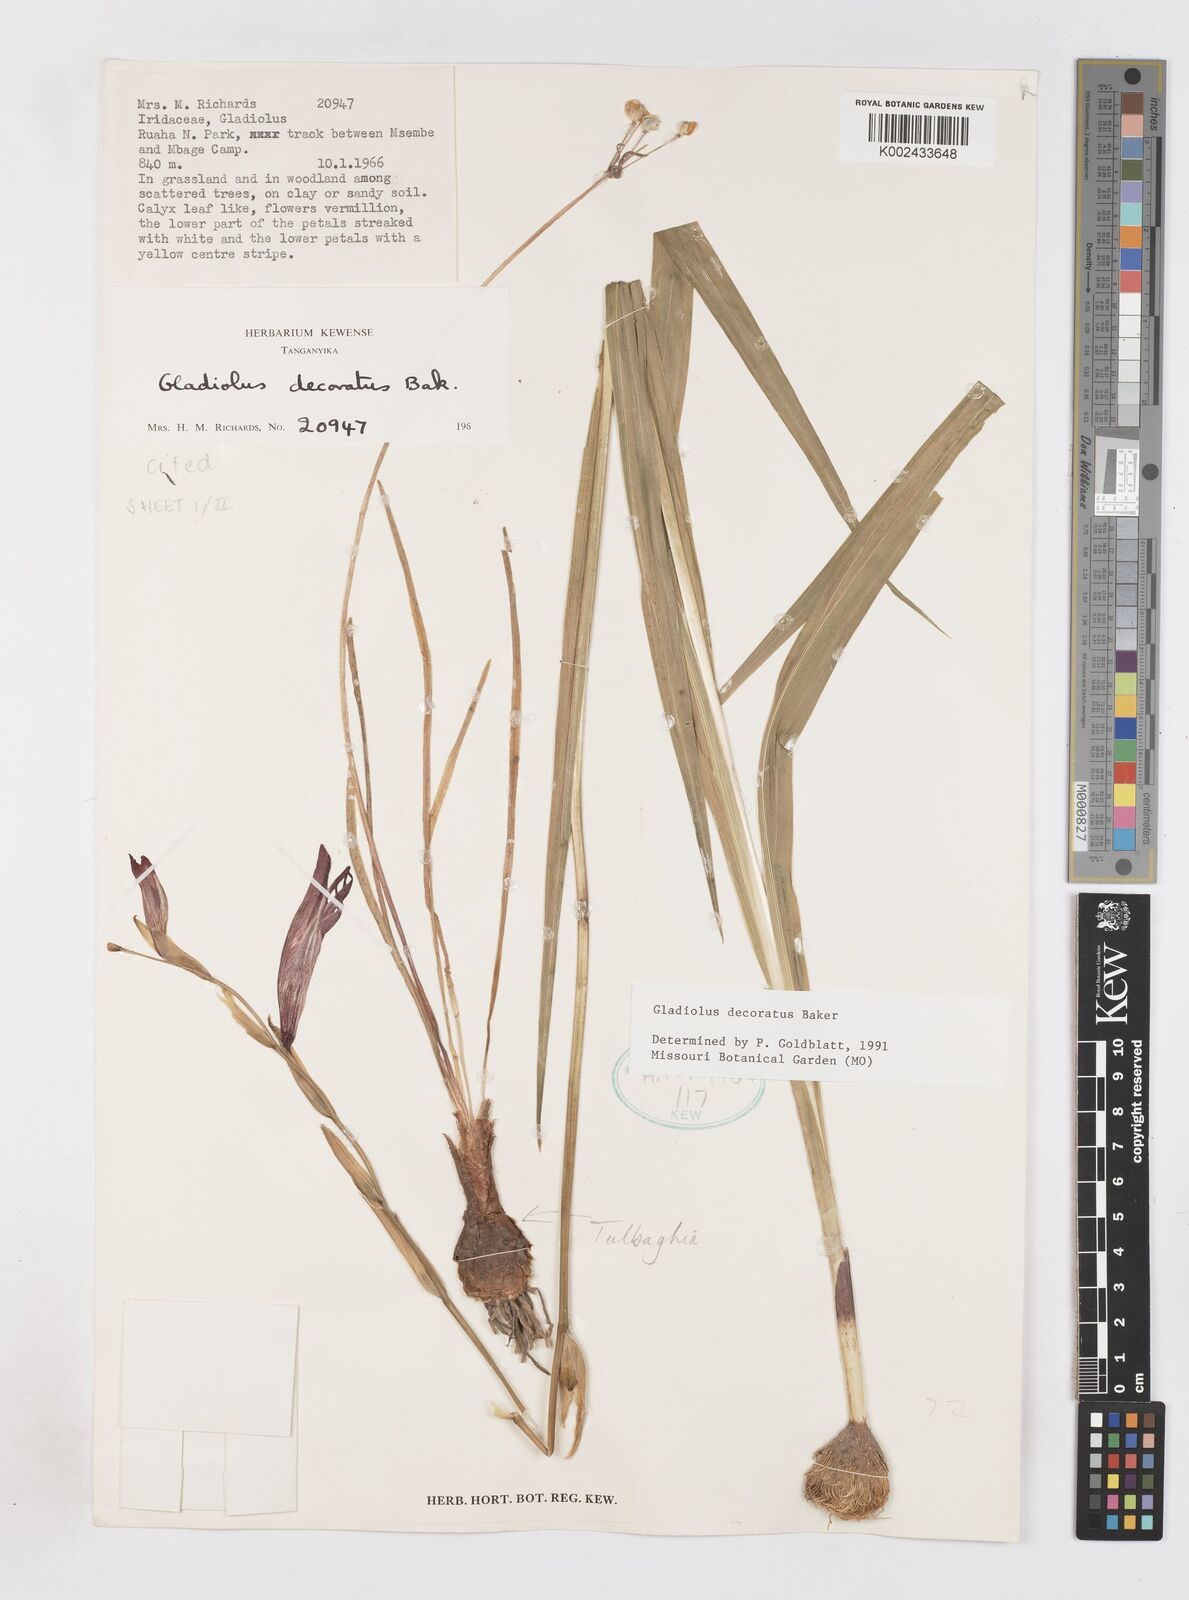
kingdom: Plantae
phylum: Tracheophyta
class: Liliopsida
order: Asparagales
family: Iridaceae
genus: Gladiolus
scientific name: Gladiolus decoratus
